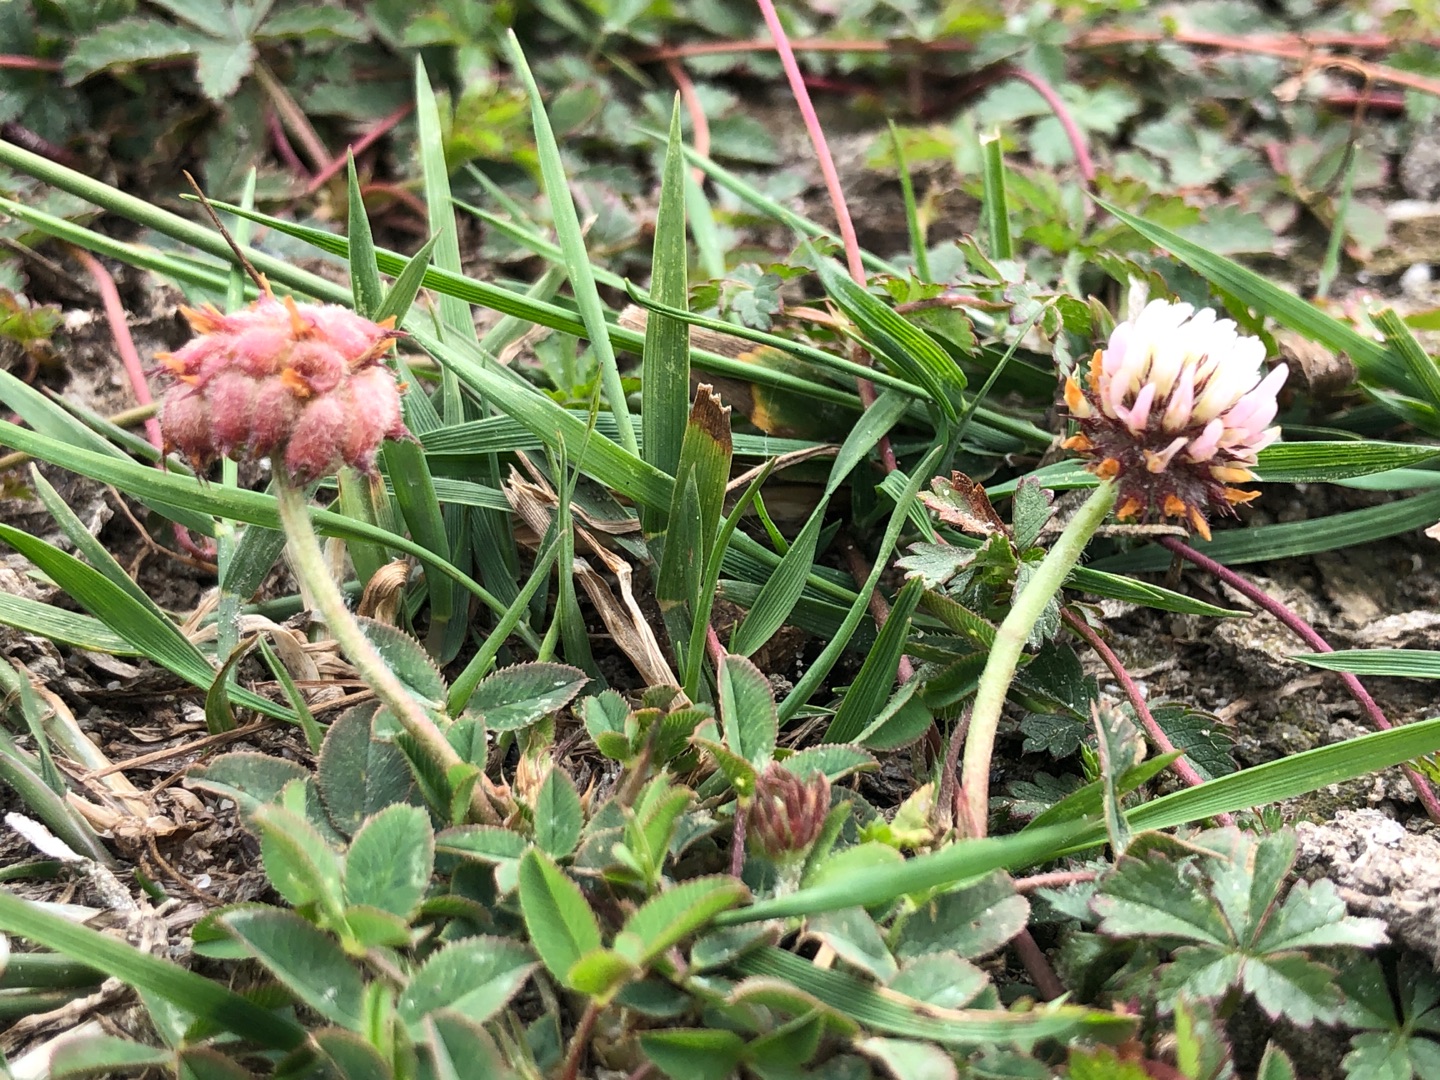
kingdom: Plantae
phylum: Tracheophyta
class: Magnoliopsida
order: Fabales
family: Fabaceae
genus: Trifolium
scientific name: Trifolium fragiferum
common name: Jordbær-kløver
